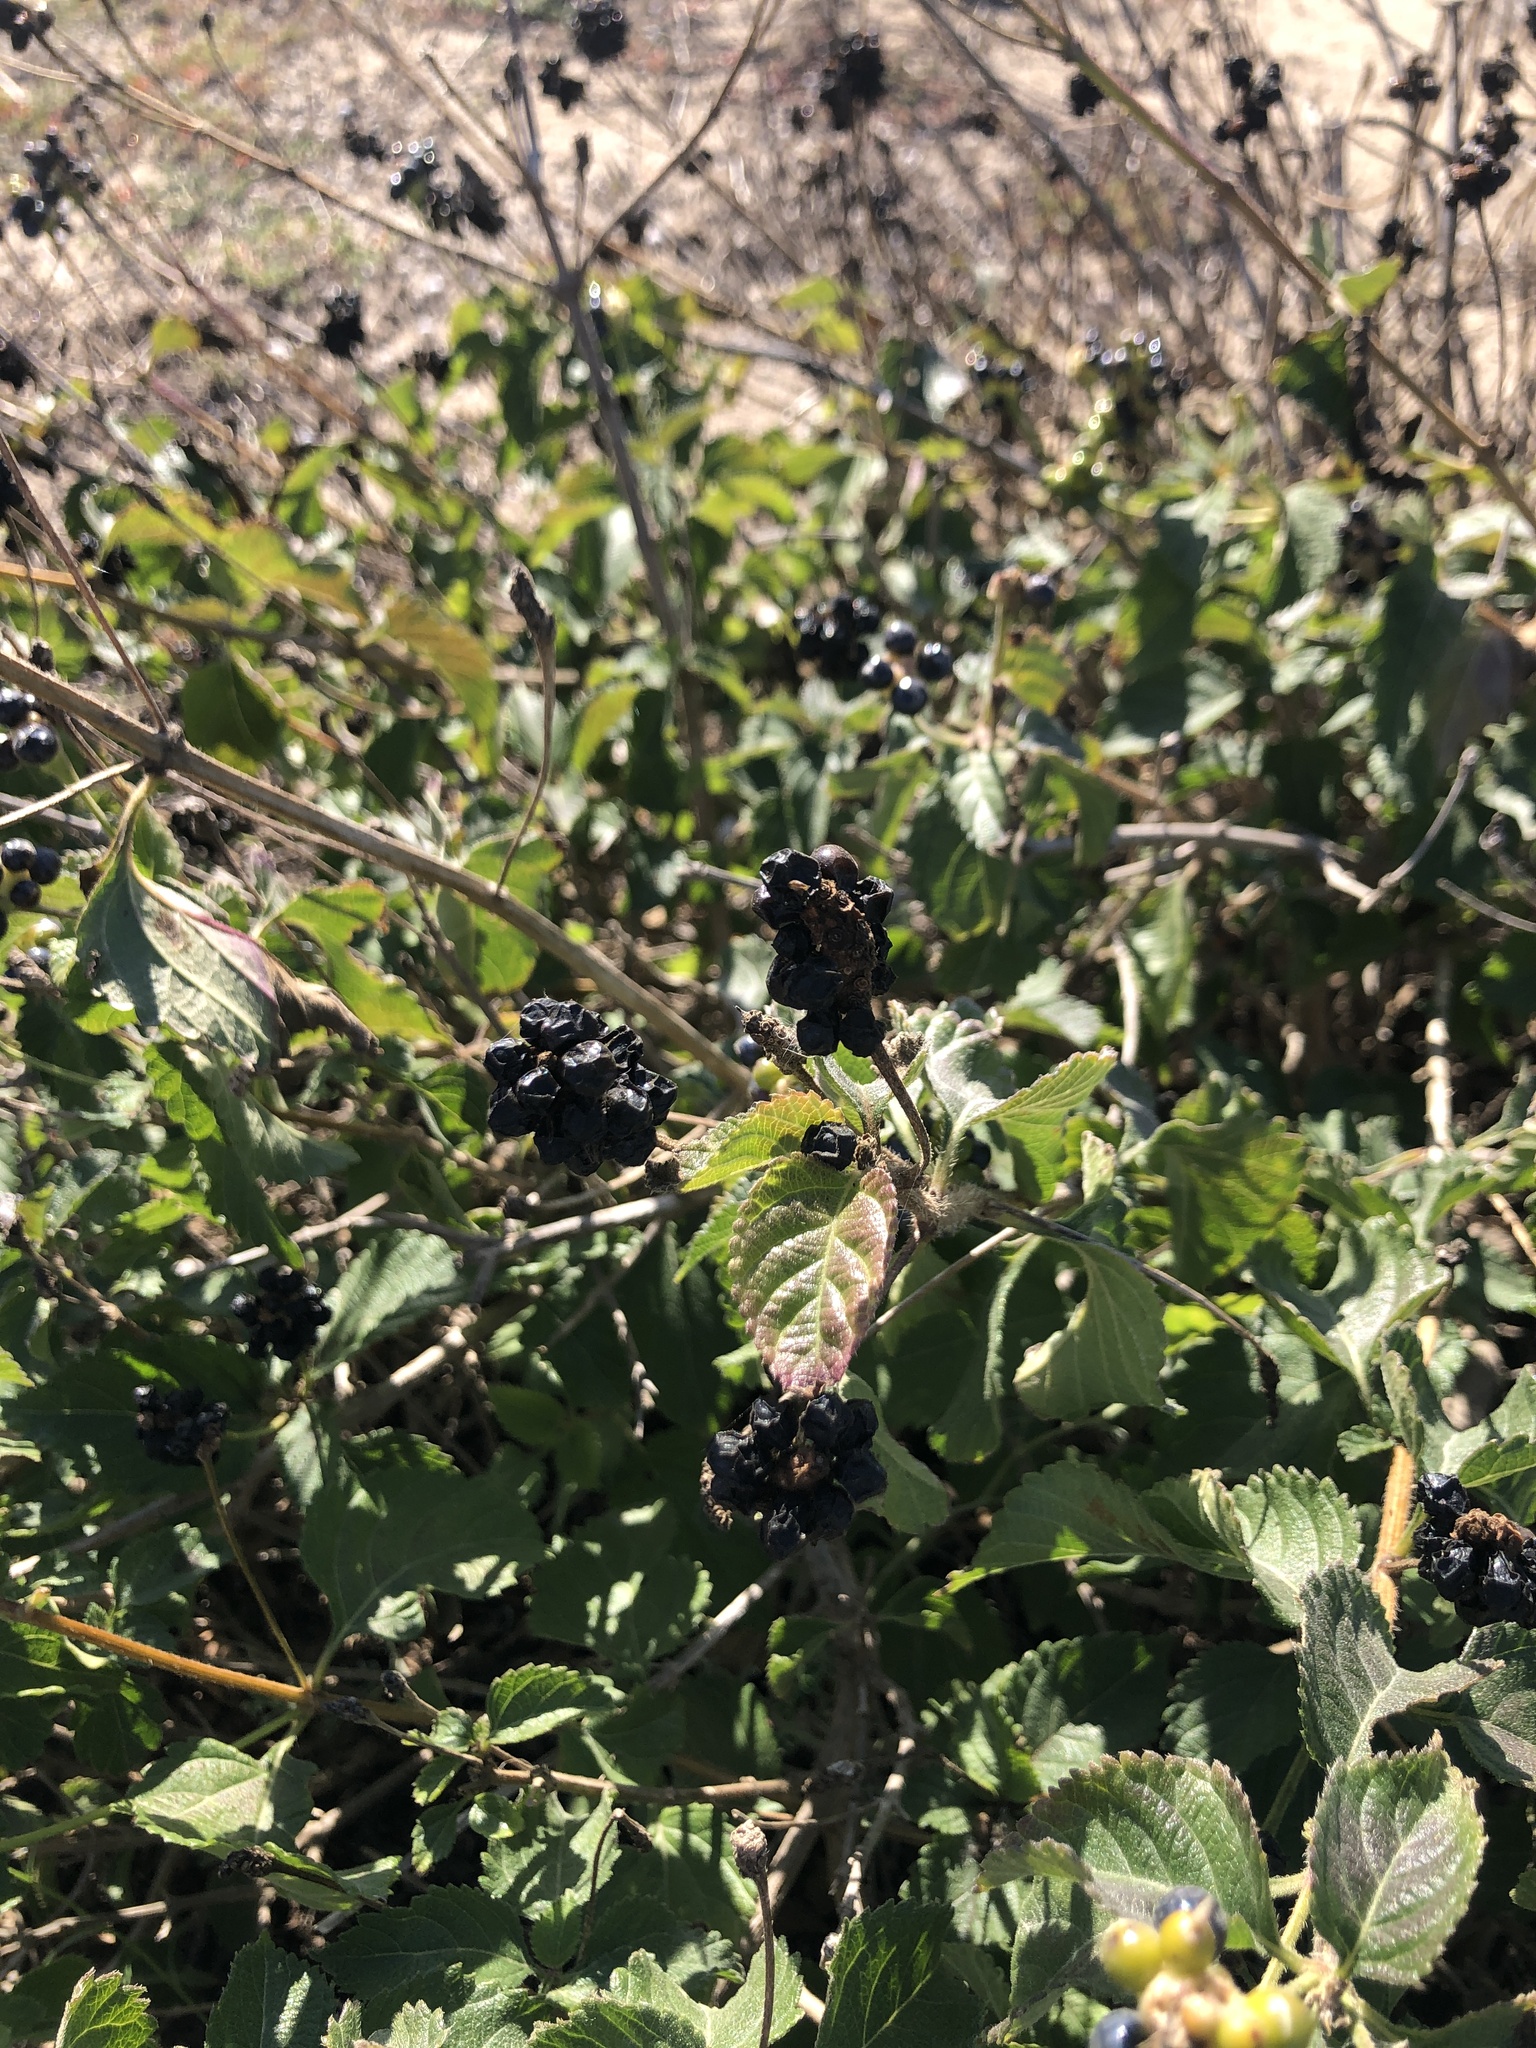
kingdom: Plantae
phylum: Tracheophyta
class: Magnoliopsida
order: Lamiales
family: Verbenaceae
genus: Lantana
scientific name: Lantana camara
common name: Lantana
